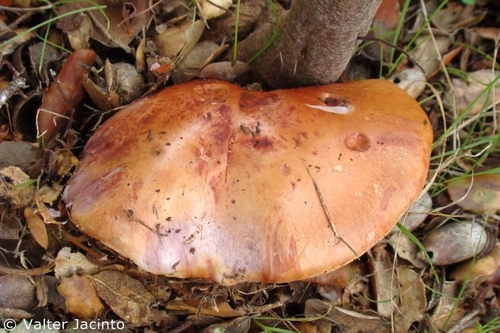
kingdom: Fungi
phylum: Basidiomycota
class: Agaricomycetes
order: Agaricales
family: Cortinariaceae
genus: Cortinarius
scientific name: Cortinarius rufo-olivaceus
